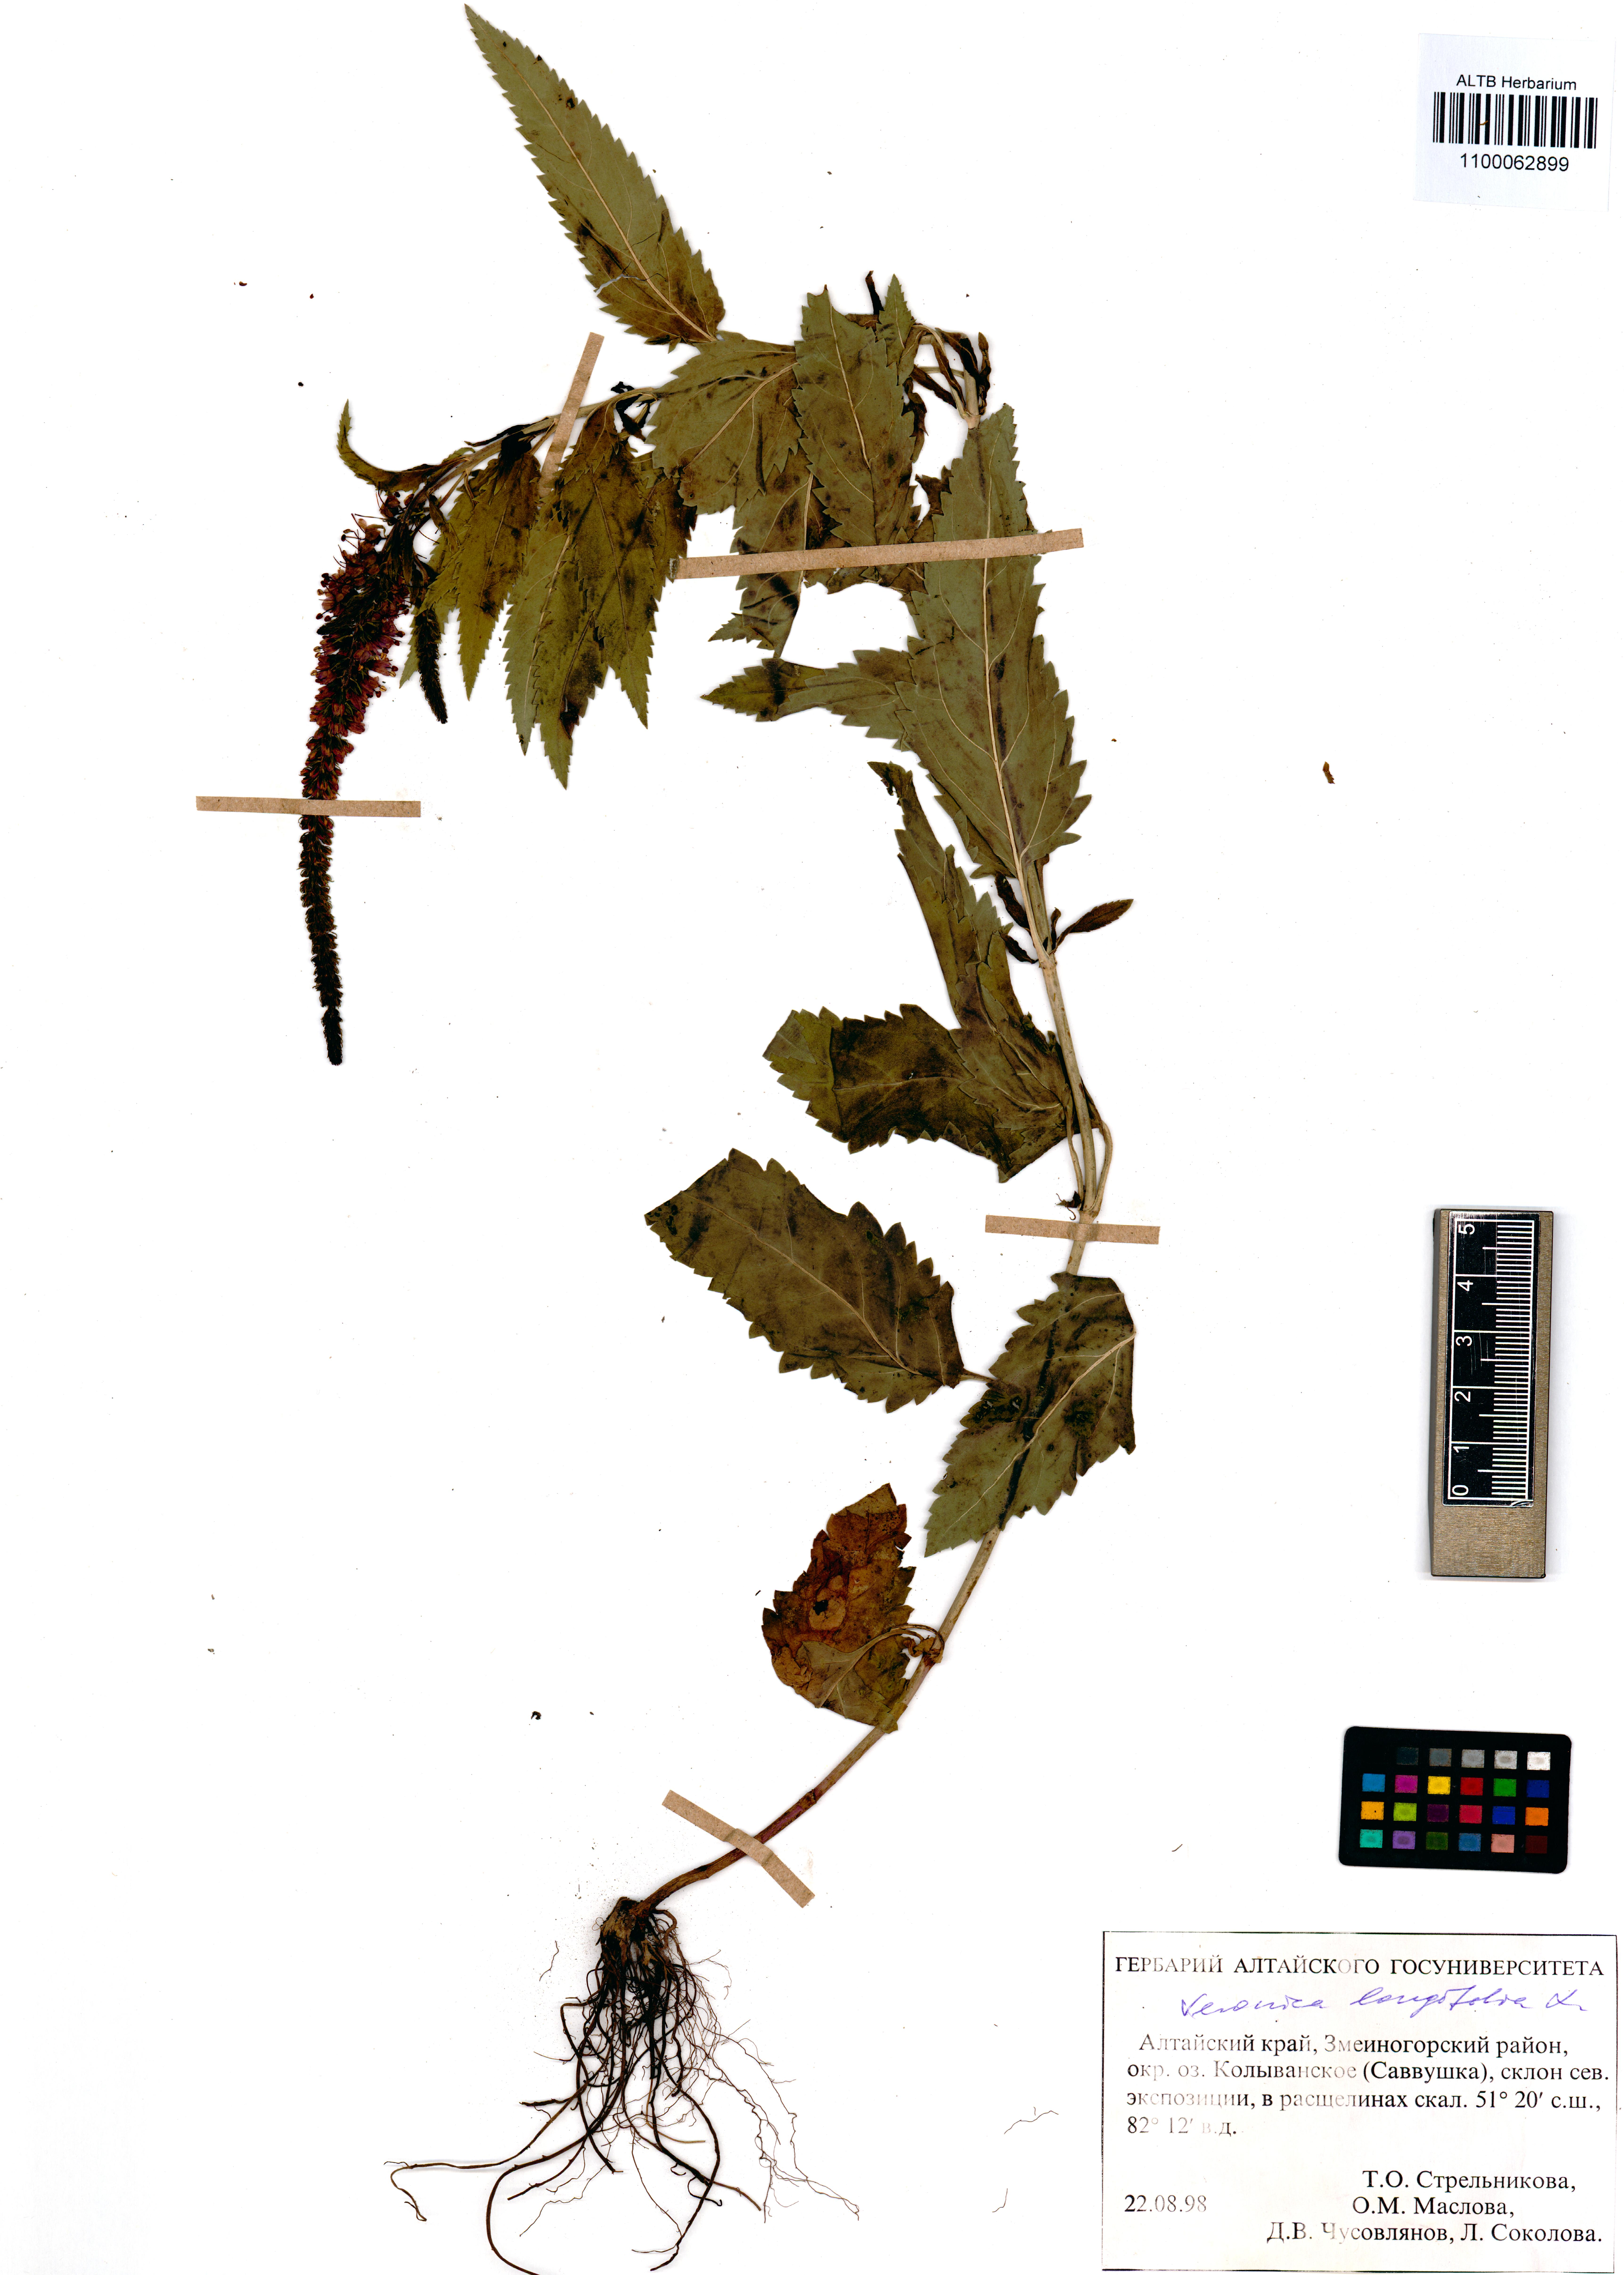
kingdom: Plantae
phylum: Tracheophyta
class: Magnoliopsida
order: Lamiales
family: Plantaginaceae
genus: Veronica
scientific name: Veronica longifolia
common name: Garden speedwell
